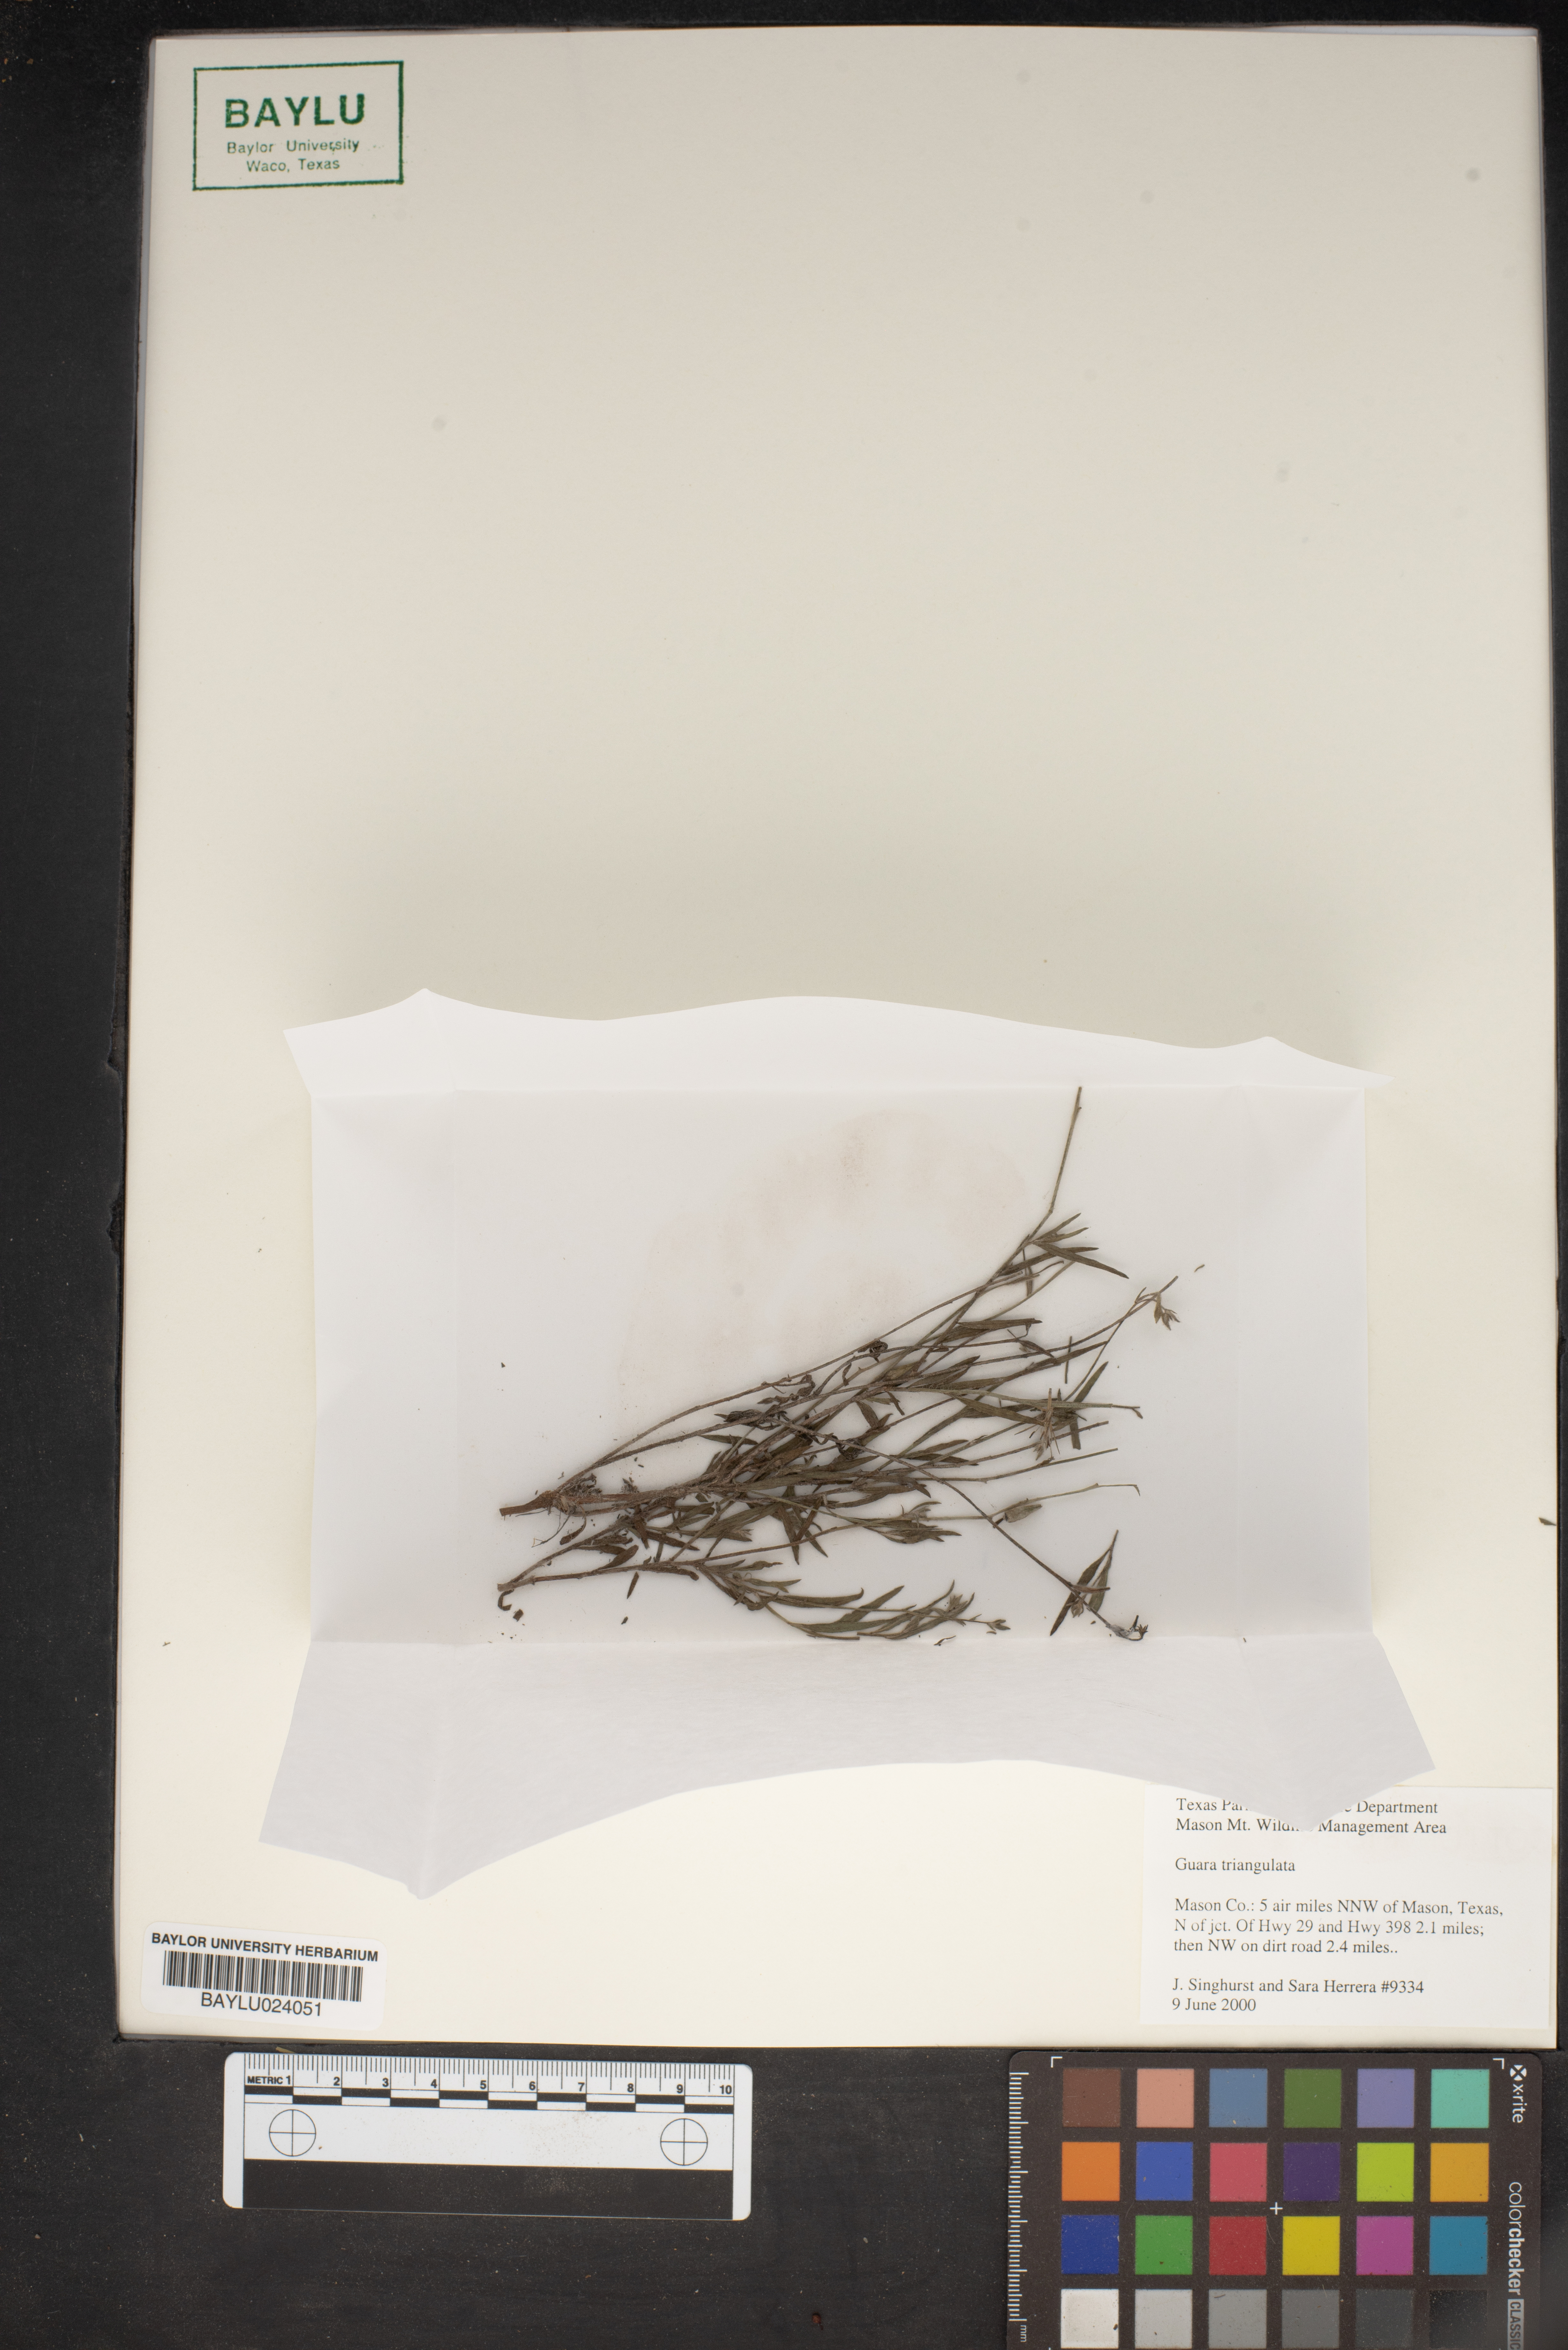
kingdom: Plantae
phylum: Tracheophyta
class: Magnoliopsida
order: Myrtales
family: Onagraceae
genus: Oenothera
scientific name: Oenothera triangulata
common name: Prairie beeblossom
